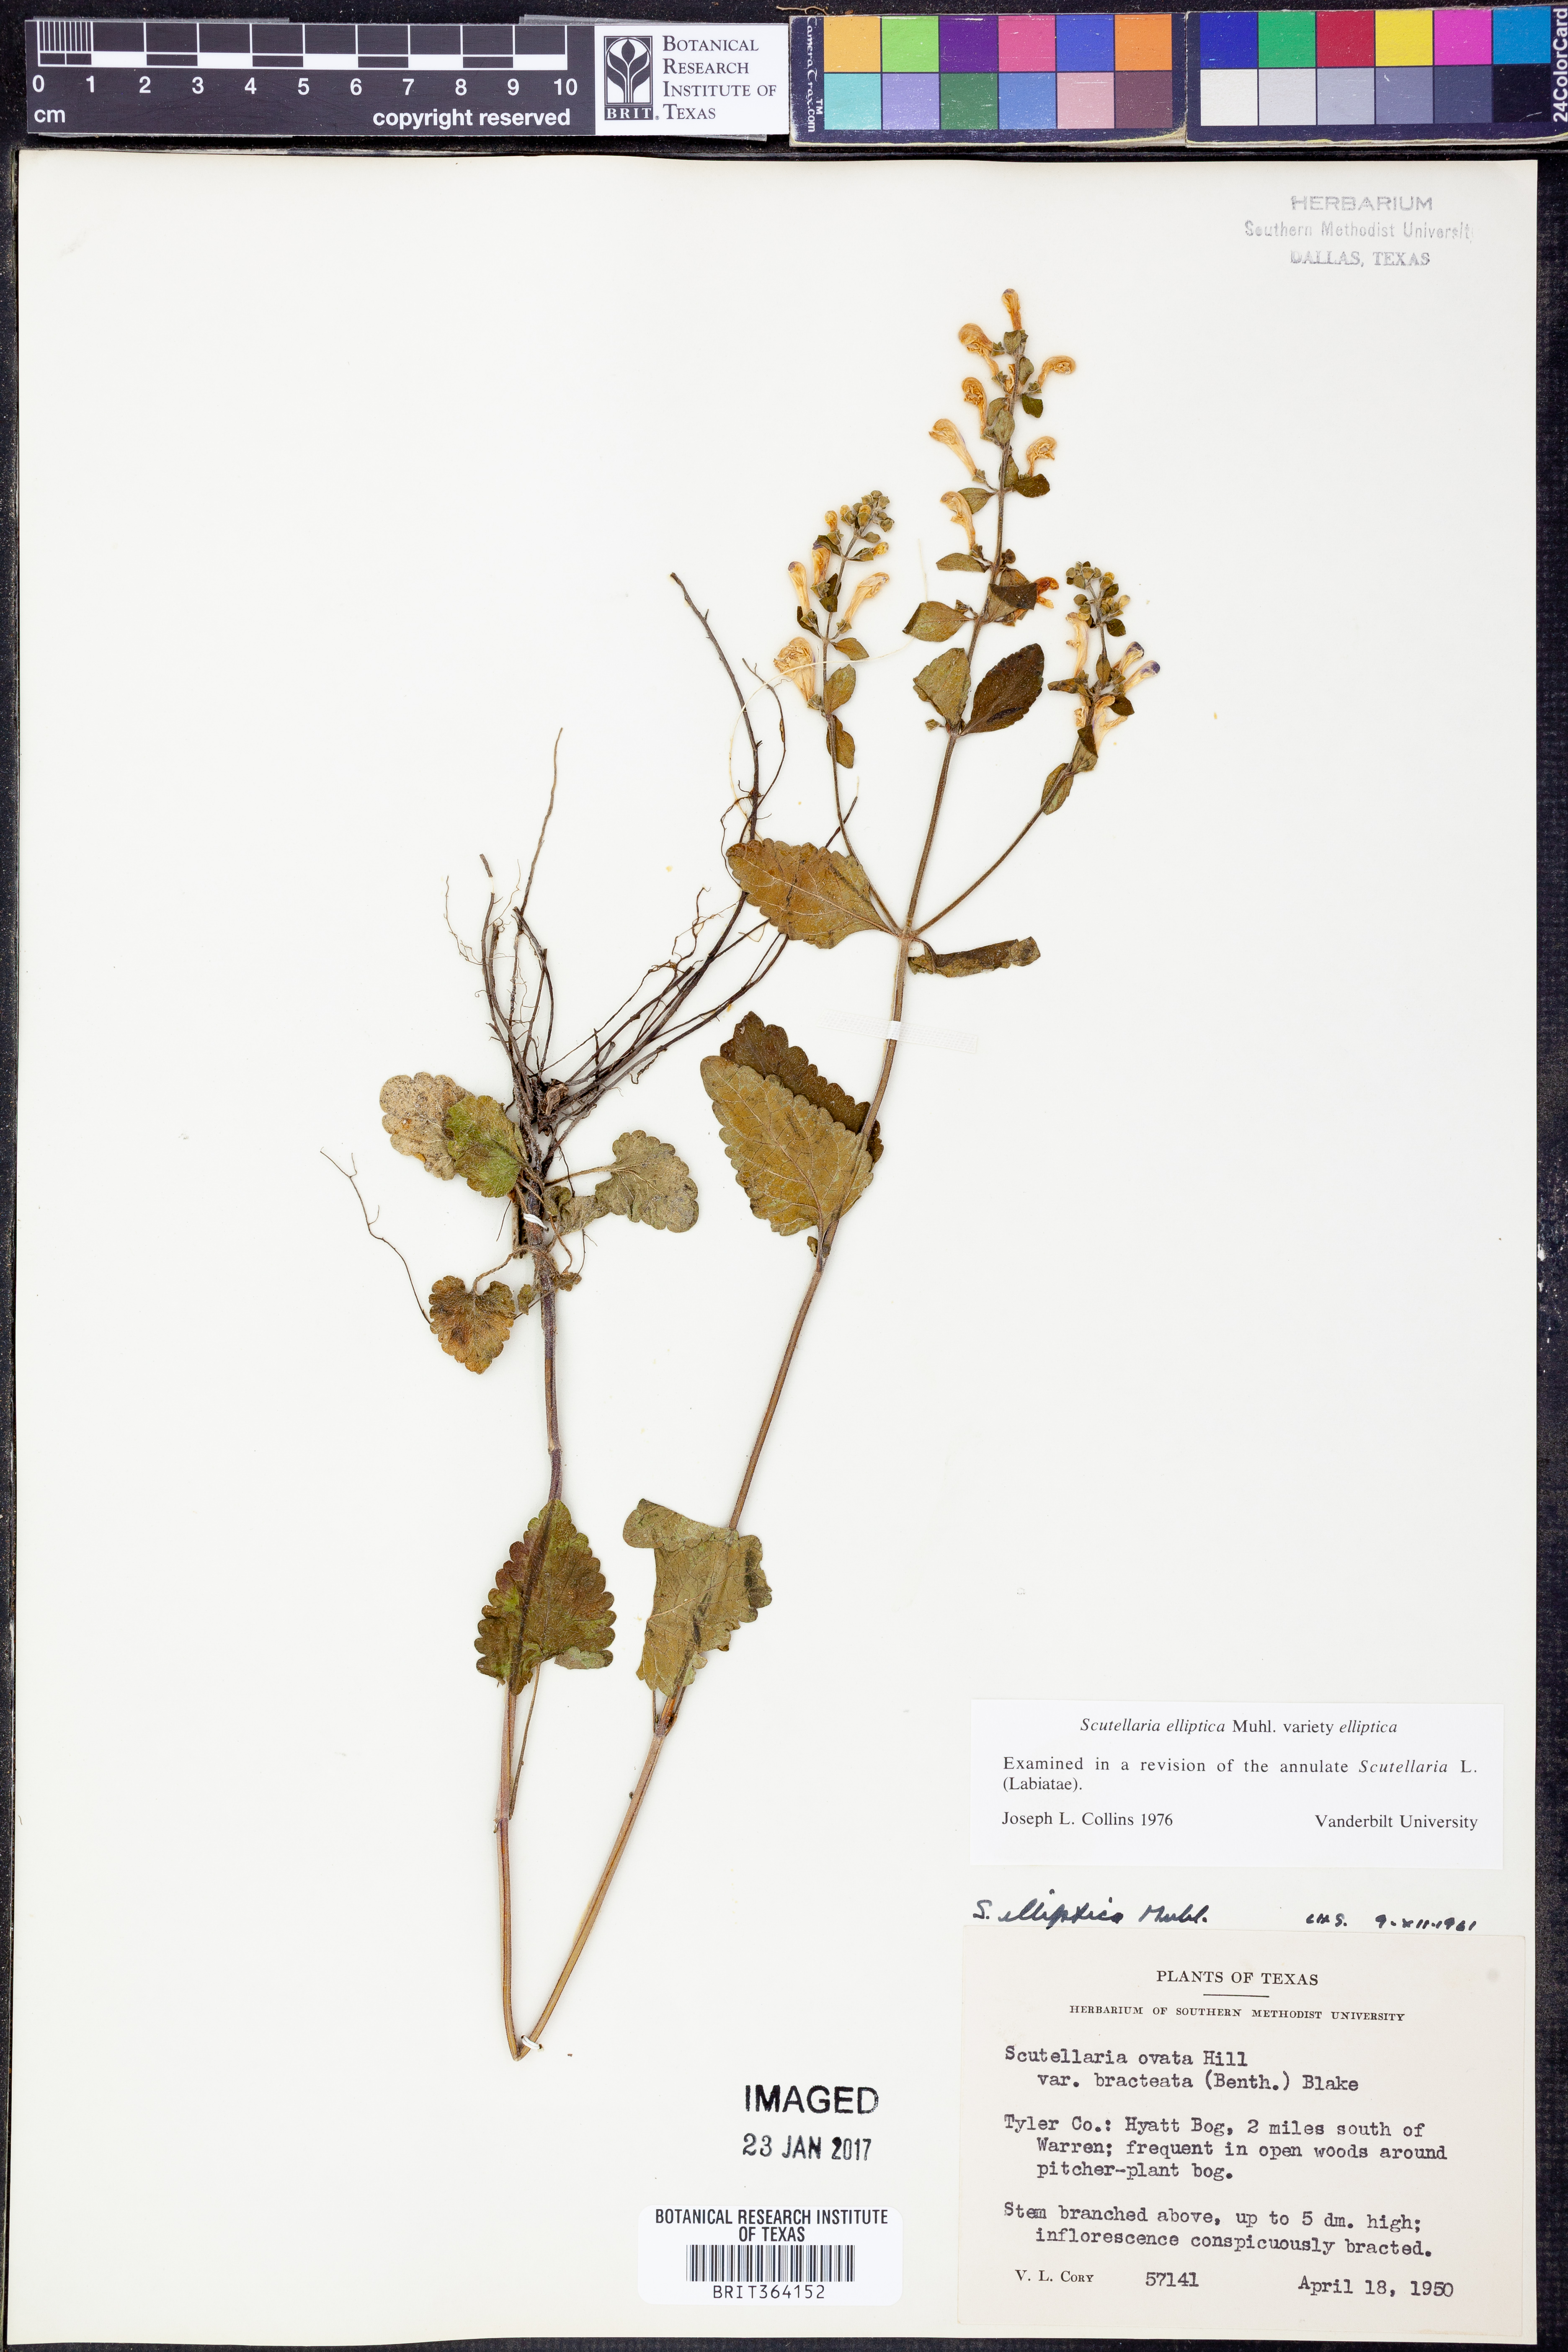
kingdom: Plantae
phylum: Tracheophyta
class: Magnoliopsida
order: Lamiales
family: Lamiaceae
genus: Scutellaria
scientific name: Scutellaria elliptica
